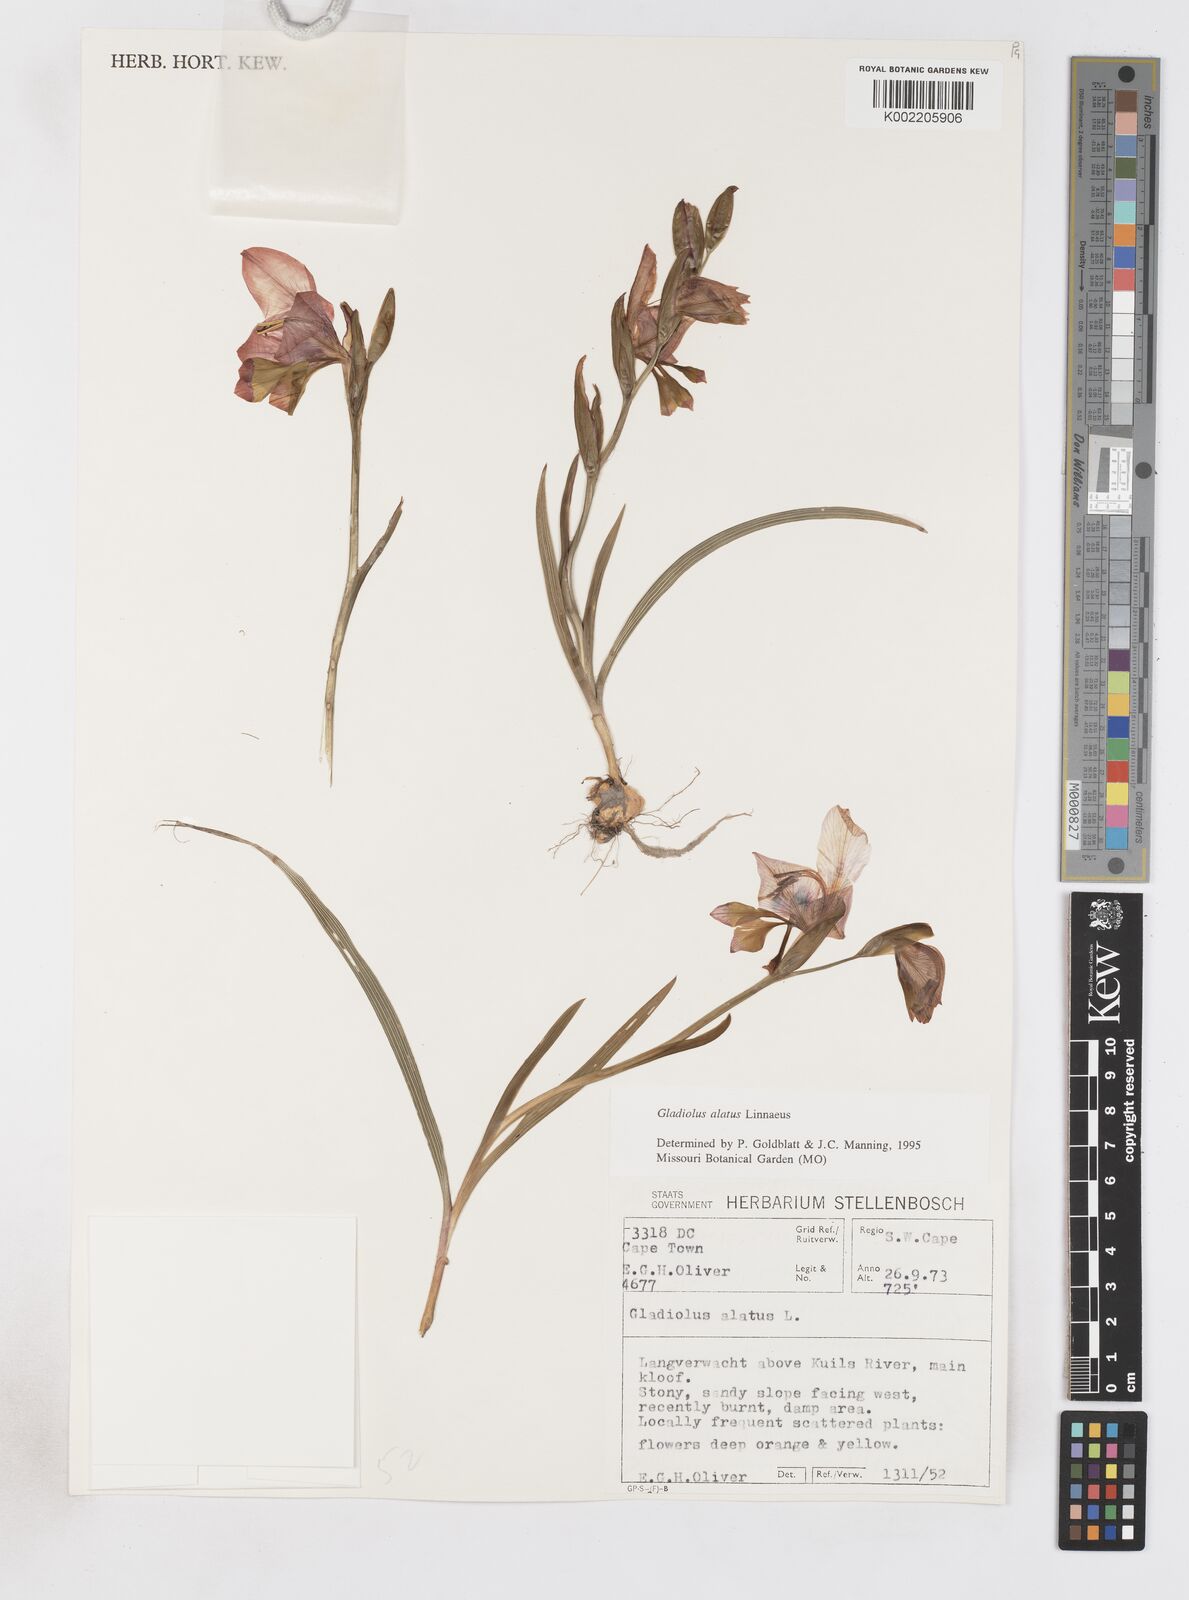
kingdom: Plantae
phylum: Tracheophyta
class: Liliopsida
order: Asparagales
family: Iridaceae
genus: Gladiolus
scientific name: Gladiolus alatus
